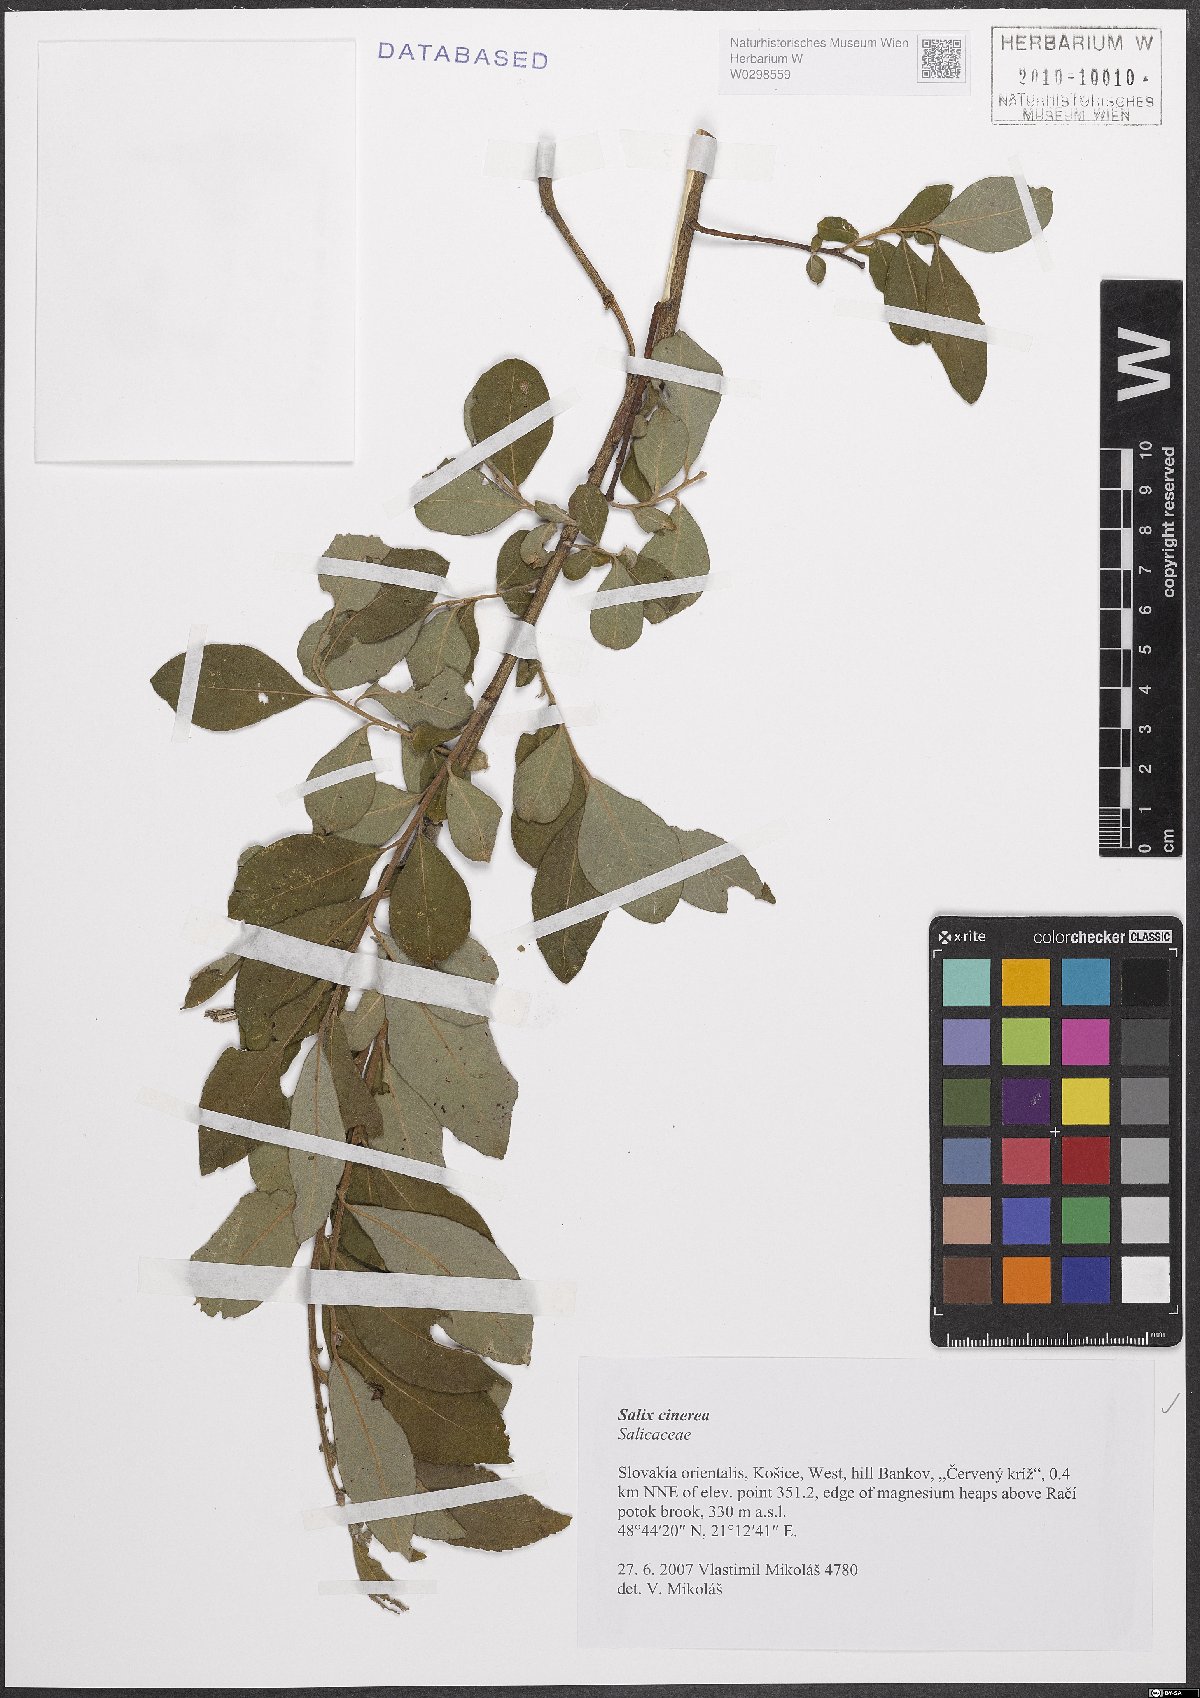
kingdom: Plantae
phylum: Tracheophyta
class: Magnoliopsida
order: Malpighiales
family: Salicaceae
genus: Salix
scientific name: Salix cinerea
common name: Common sallow
